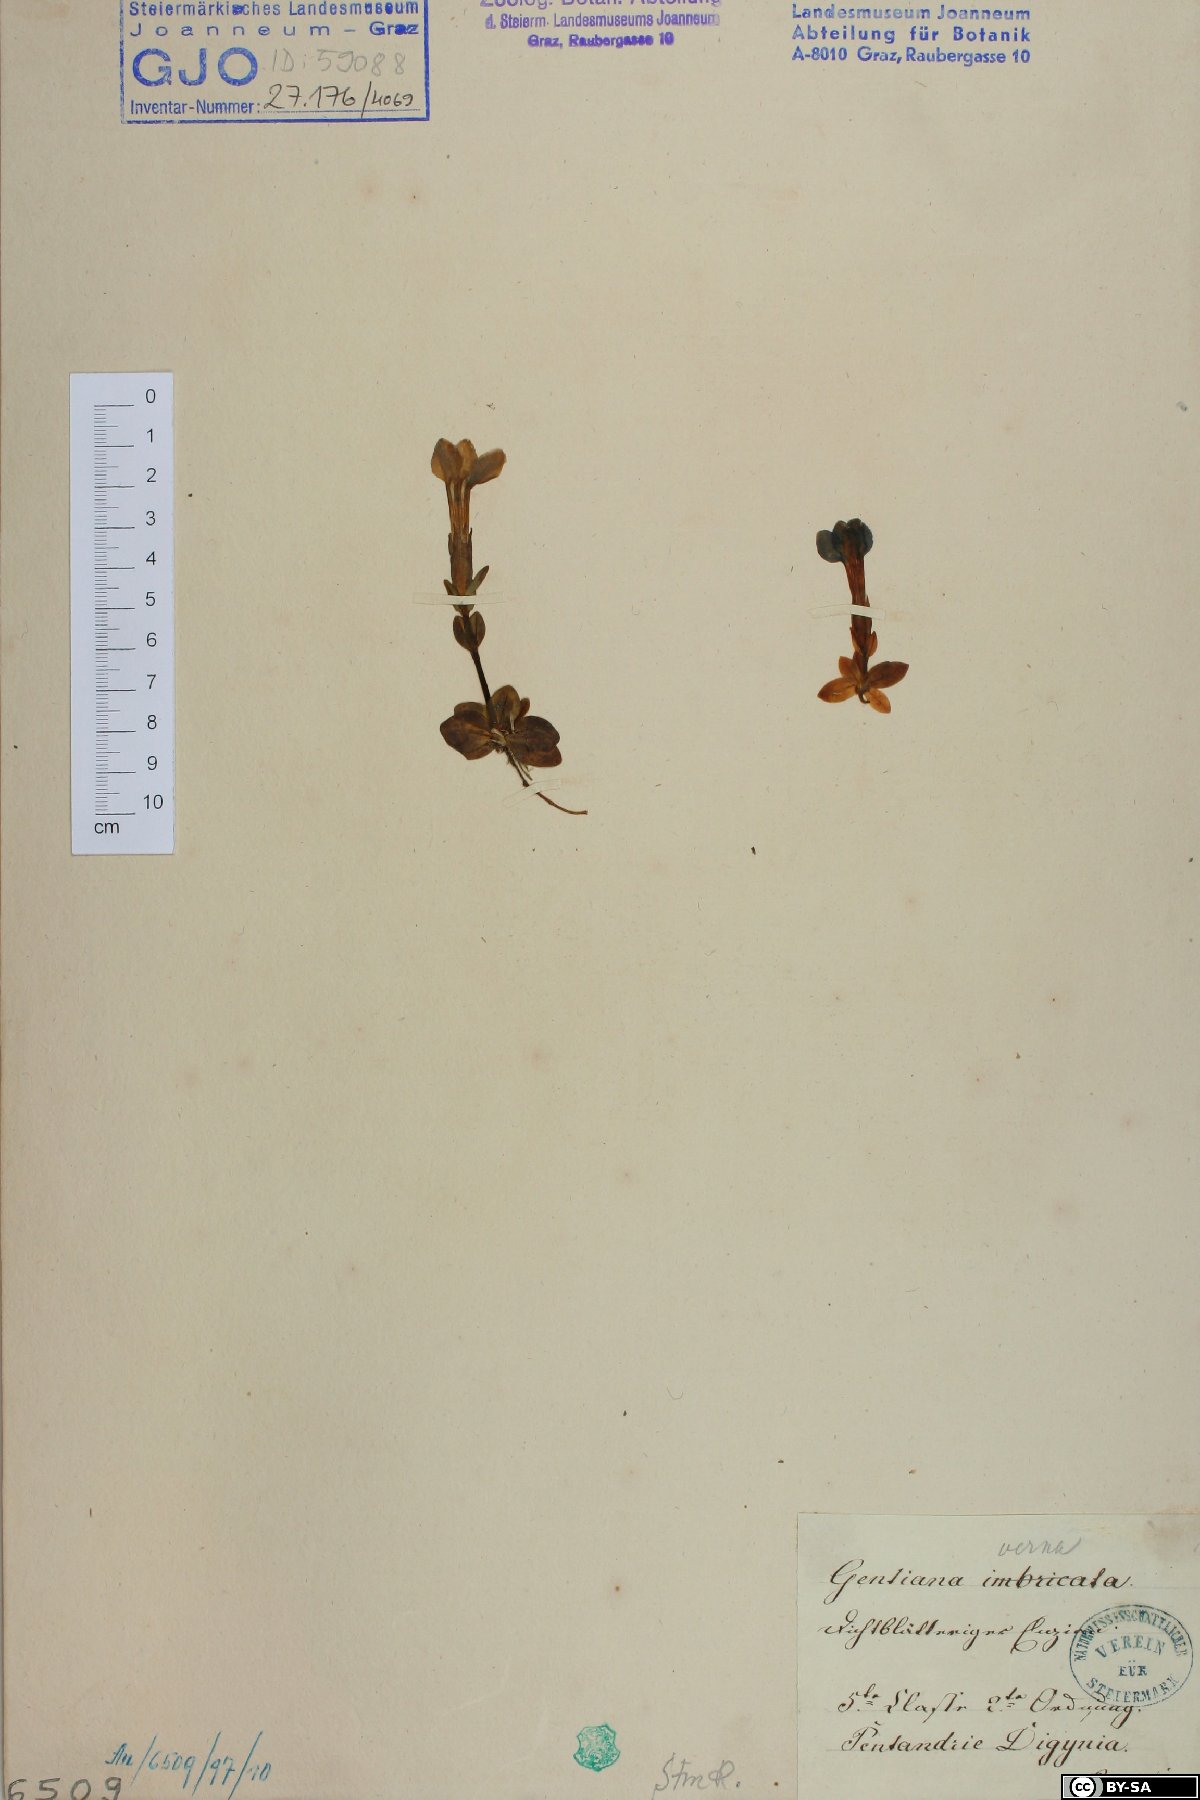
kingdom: Plantae
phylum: Tracheophyta
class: Magnoliopsida
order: Gentianales
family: Gentianaceae
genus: Gentiana
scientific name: Gentiana verna
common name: Spring gentian
